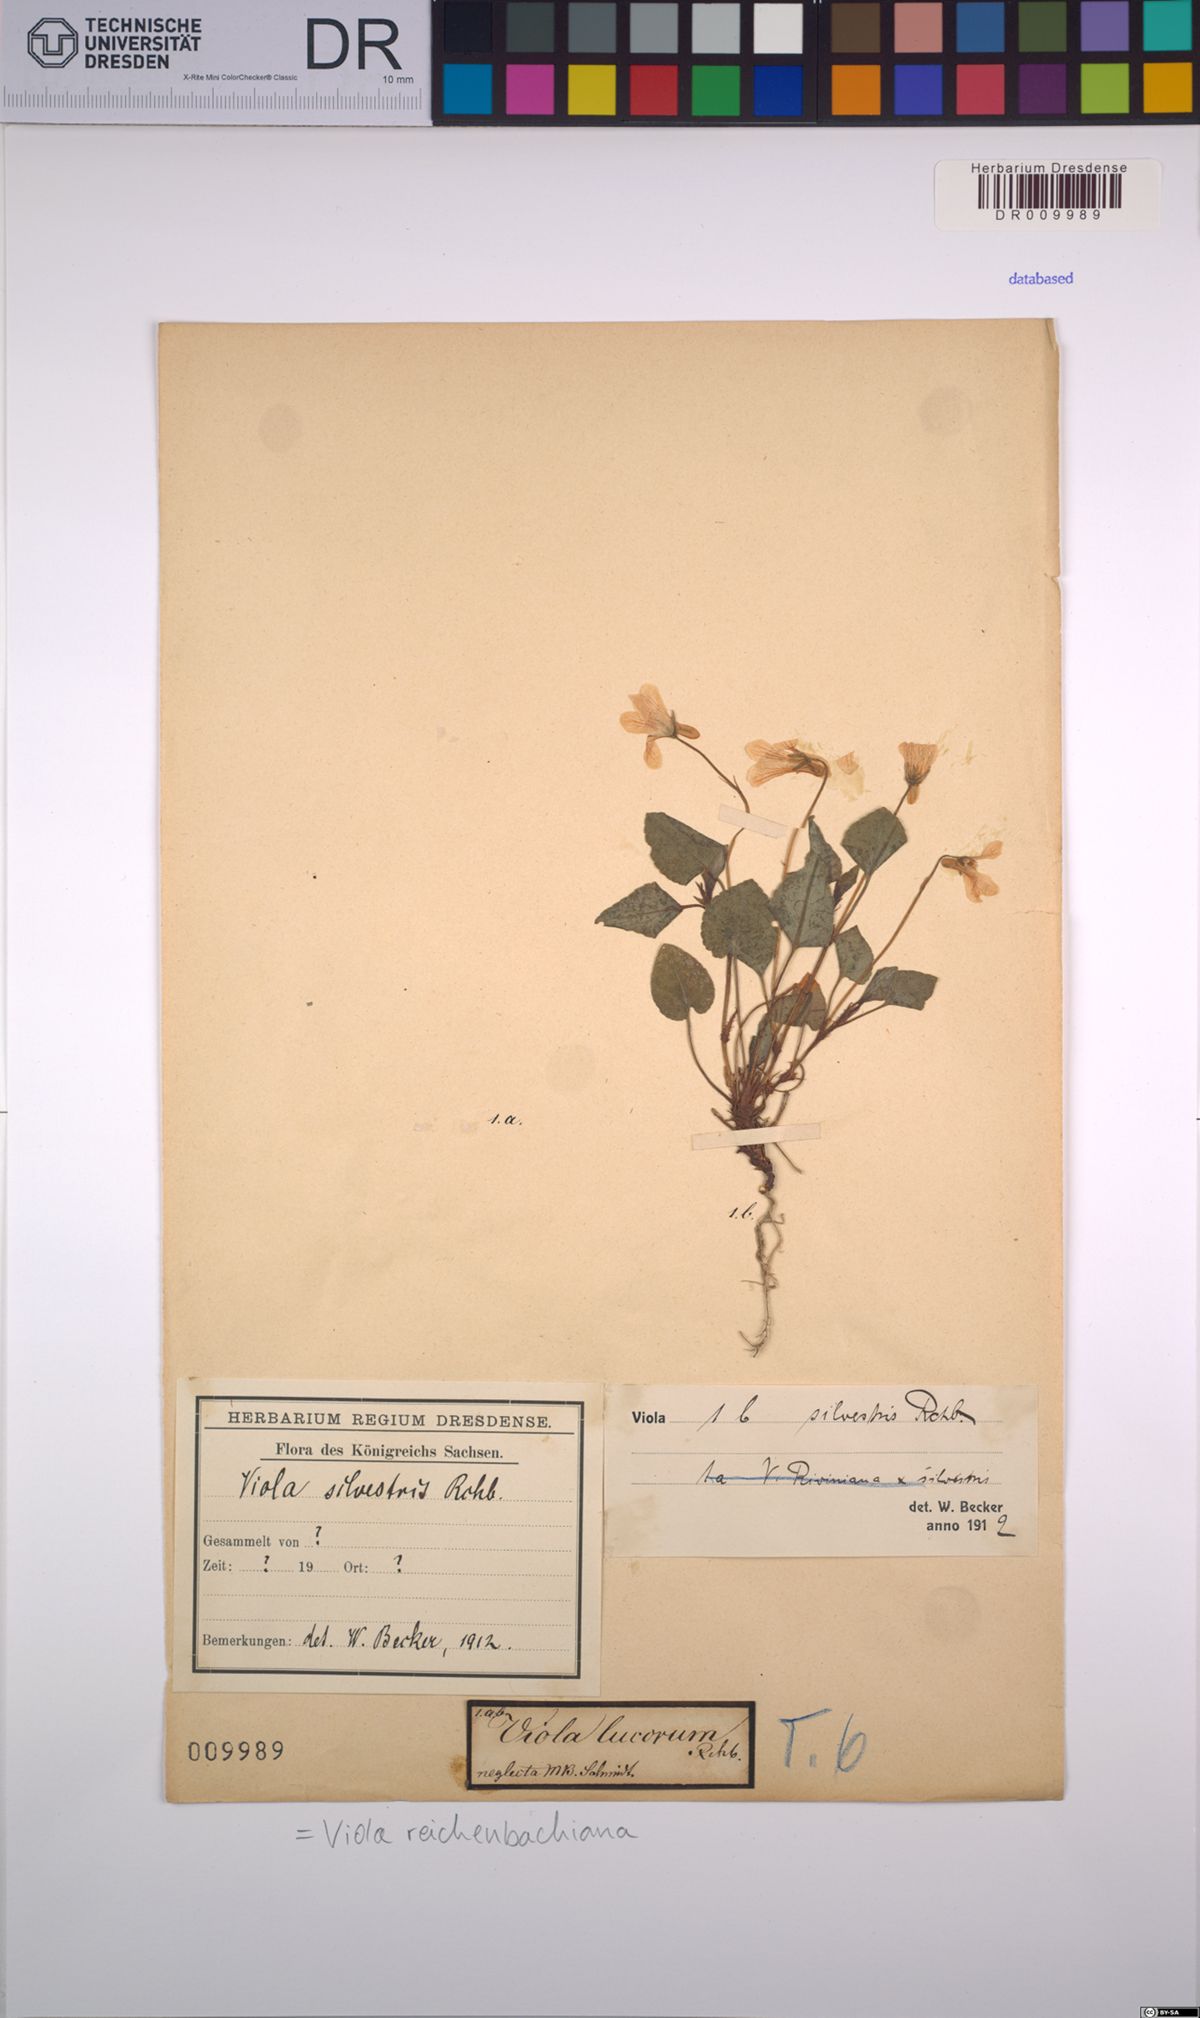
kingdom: Plantae
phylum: Tracheophyta
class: Magnoliopsida
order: Malpighiales
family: Violaceae
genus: Viola
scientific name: Viola reichenbachiana
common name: Early dog-violet
